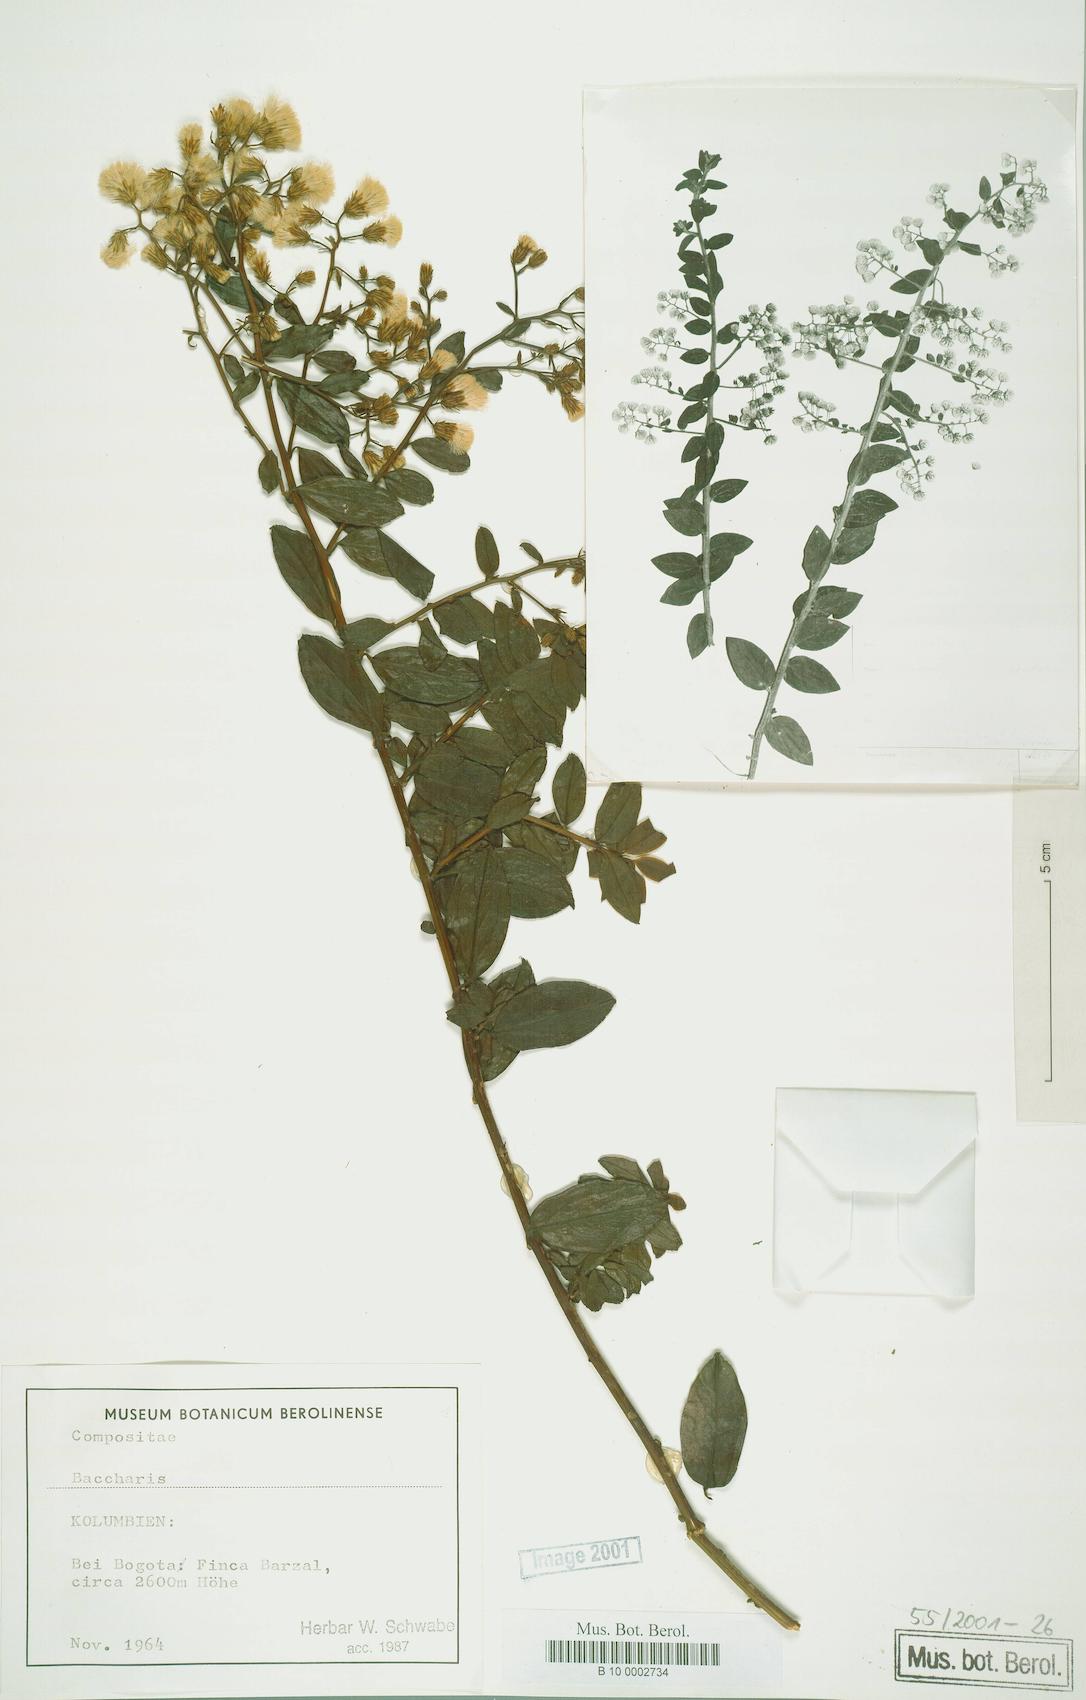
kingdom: Plantae
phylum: Tracheophyta
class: Magnoliopsida
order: Asterales
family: Asteraceae
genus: Baccharis
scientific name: Baccharis
